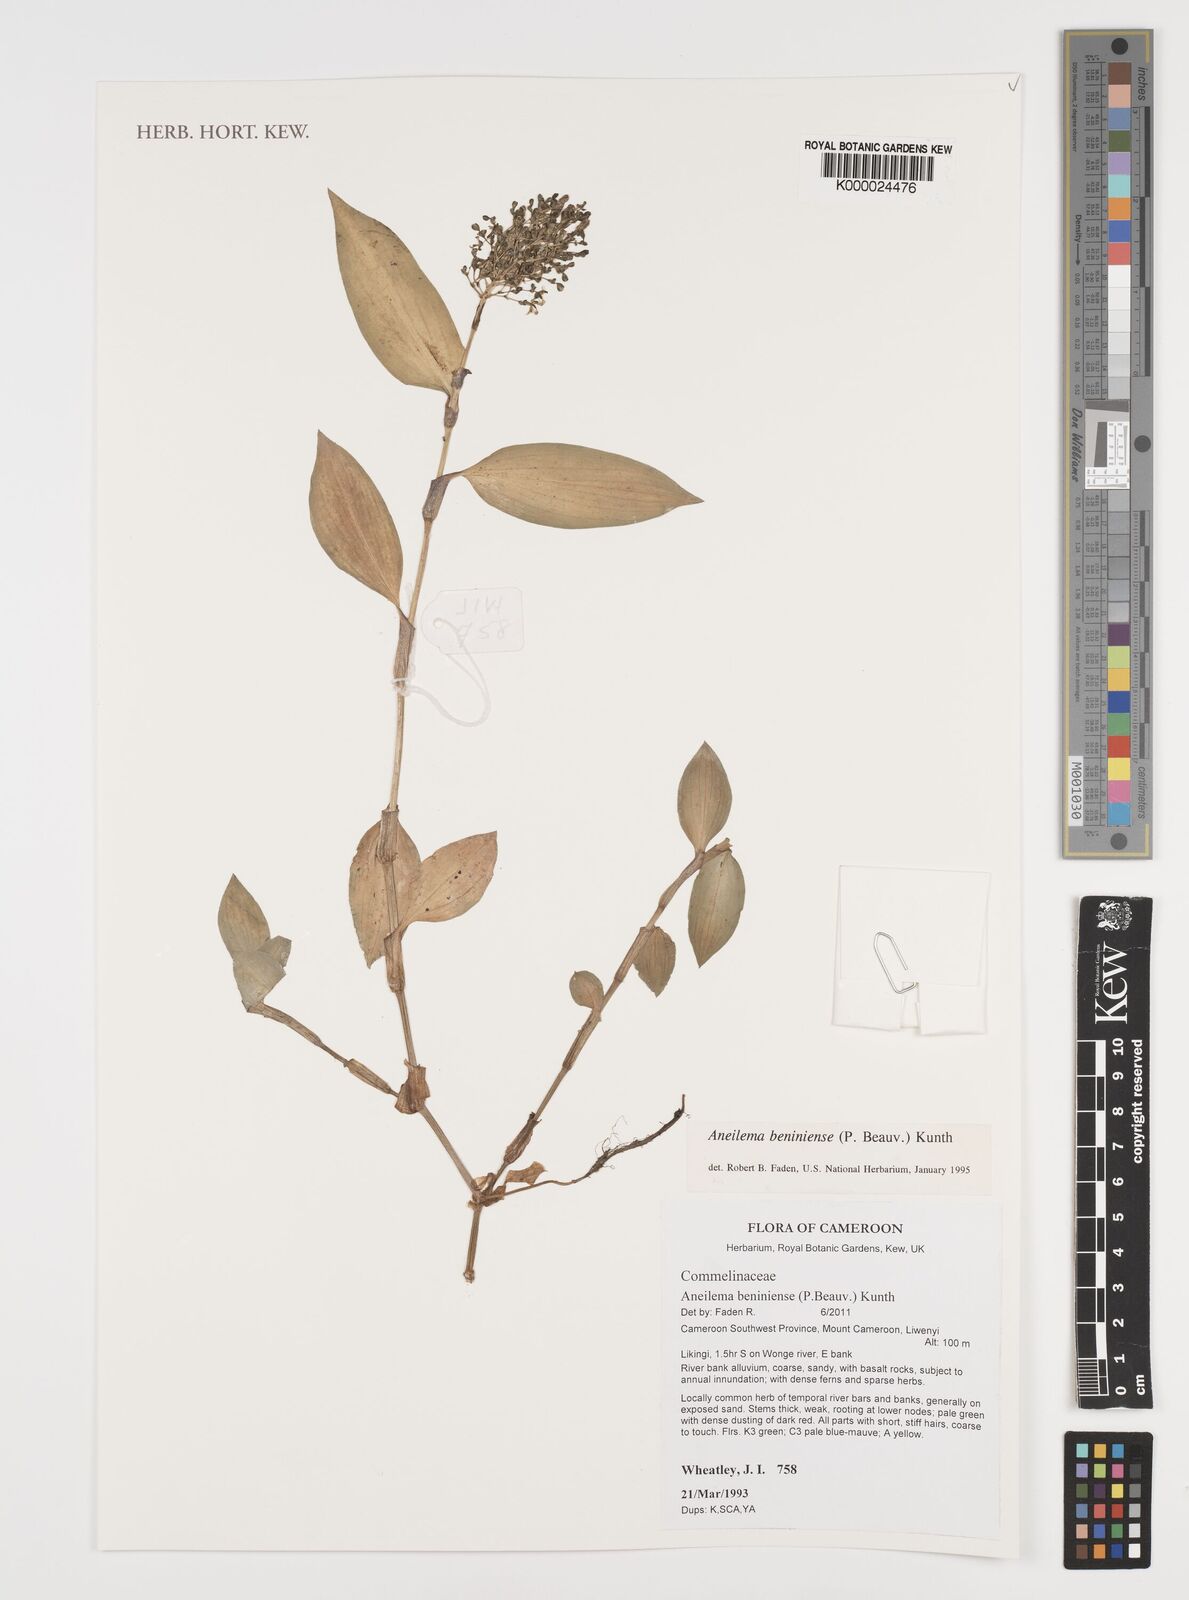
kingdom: Plantae
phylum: Tracheophyta
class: Liliopsida
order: Commelinales
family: Commelinaceae
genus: Aneilema
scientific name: Aneilema beniniense
